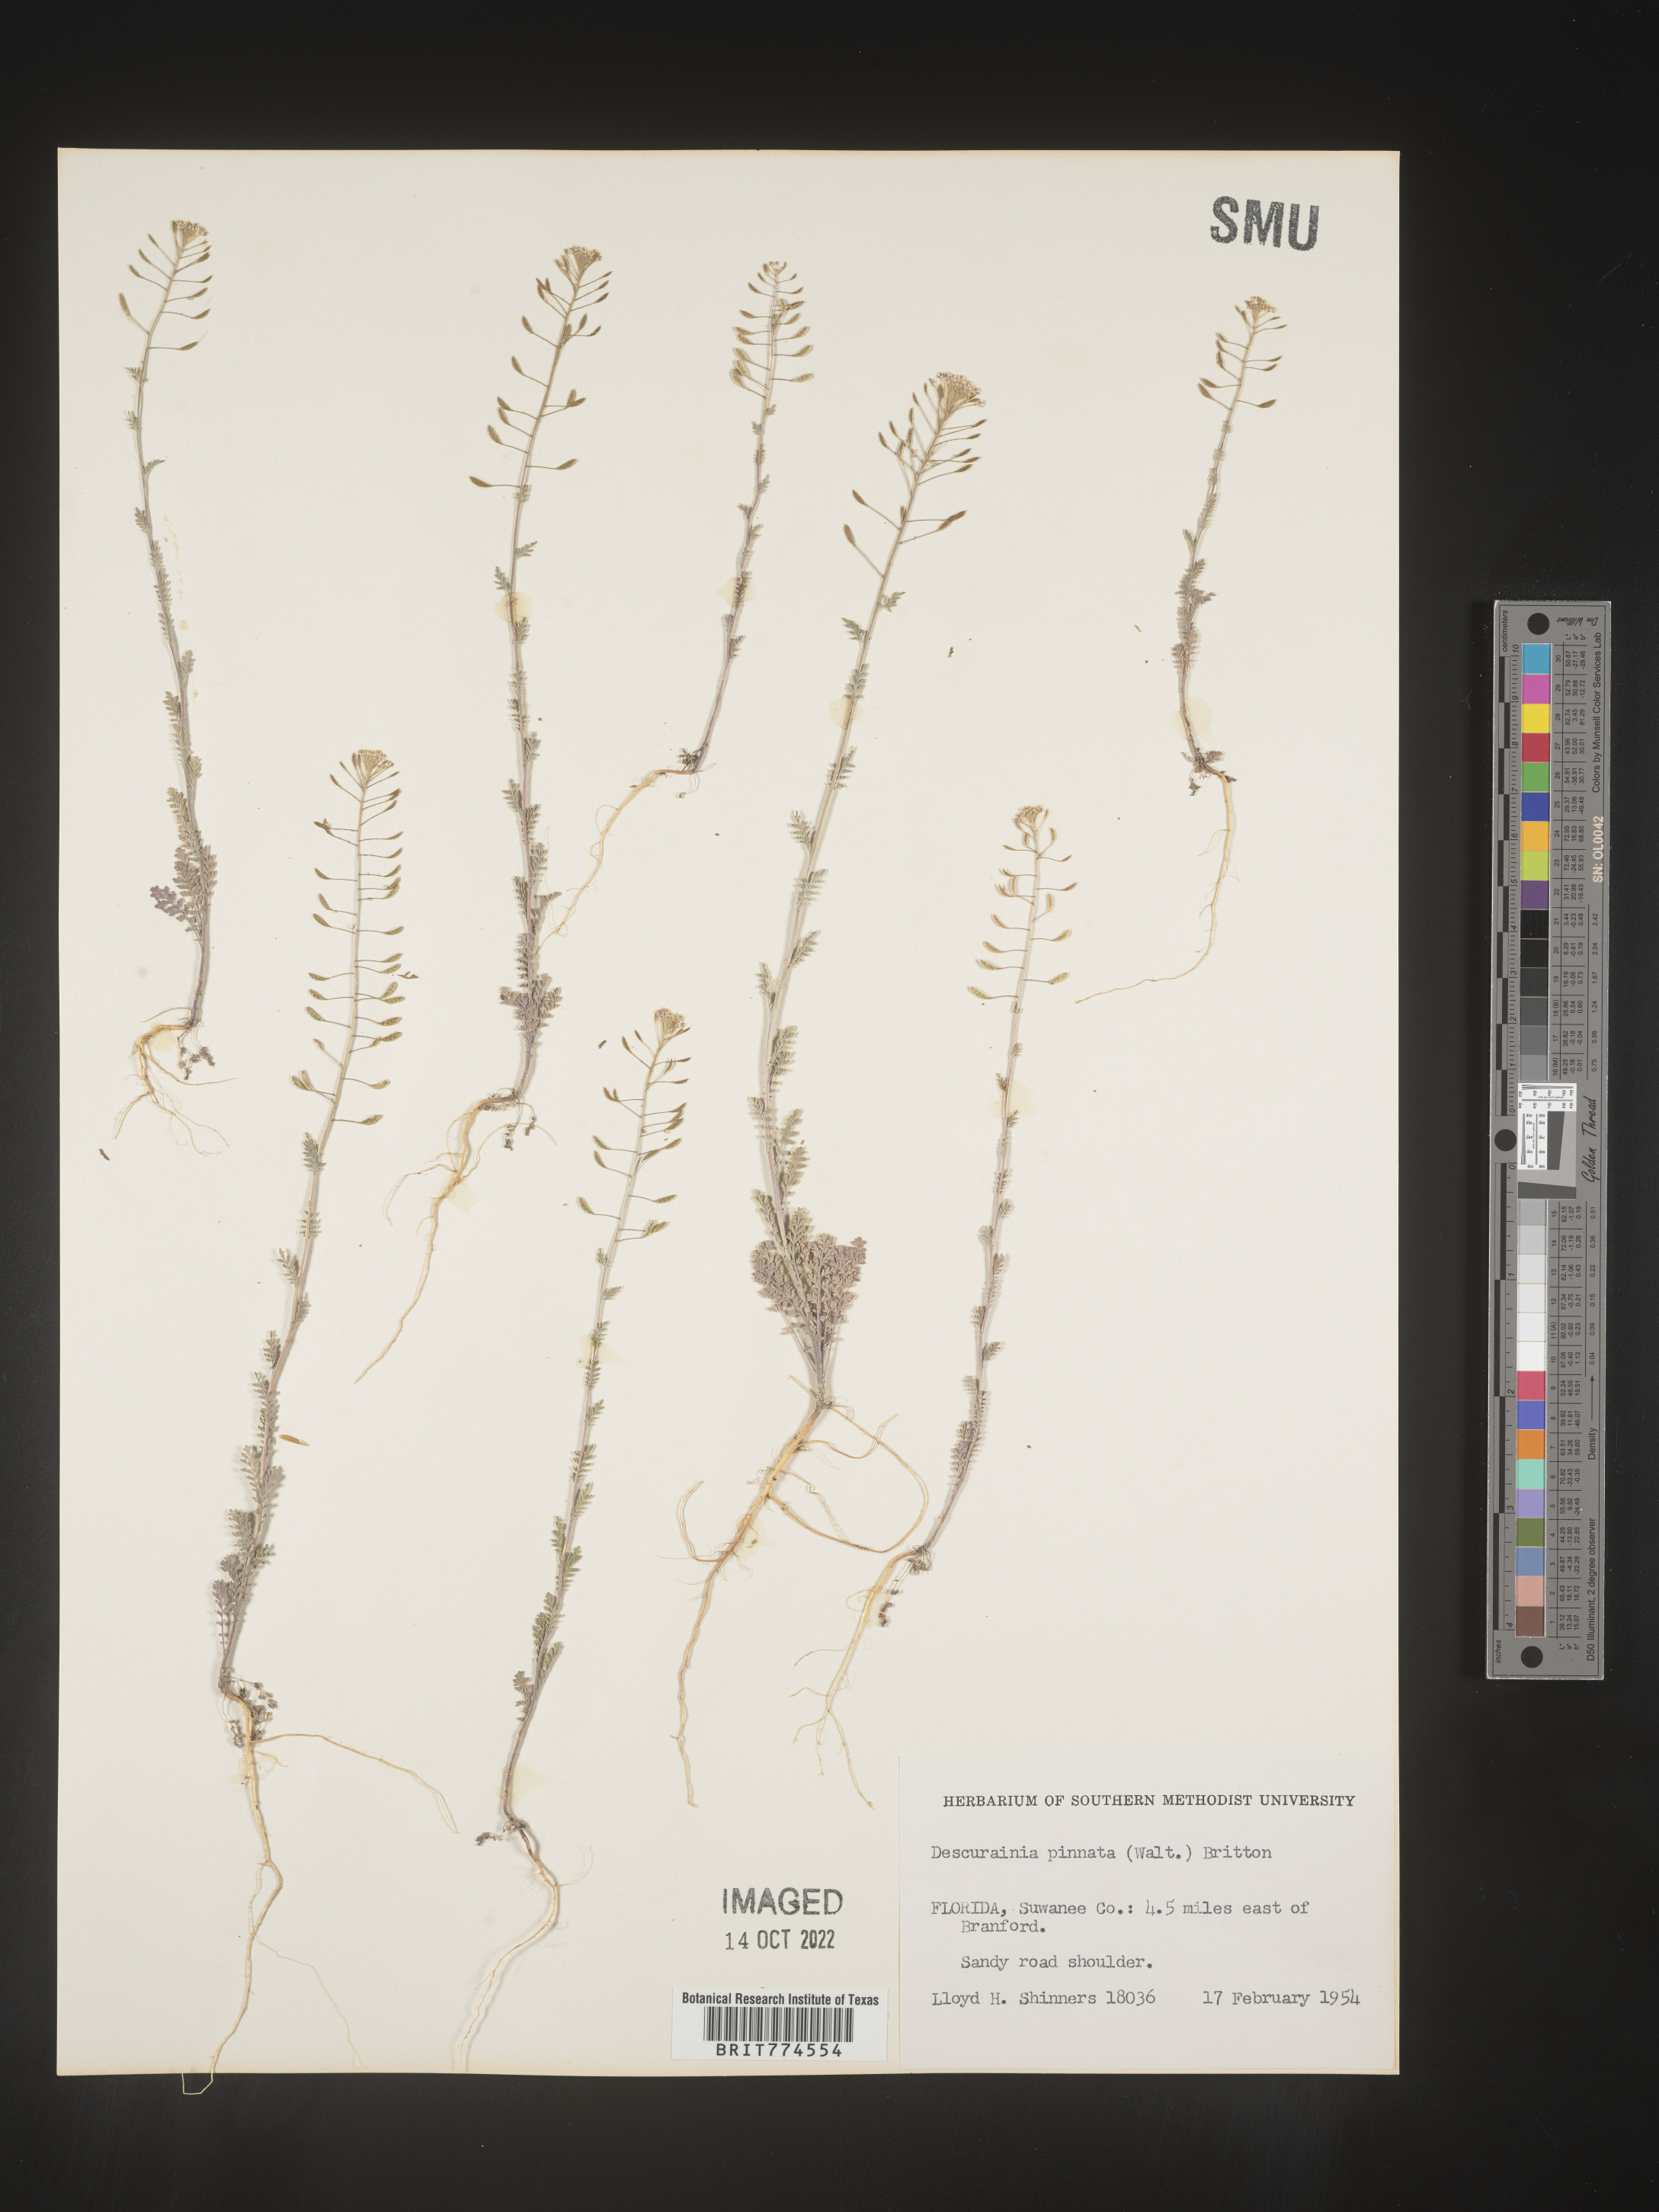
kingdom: Plantae
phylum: Tracheophyta
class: Magnoliopsida
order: Brassicales
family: Brassicaceae
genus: Descurainia
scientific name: Descurainia pinnata
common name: Western tansy mustard
